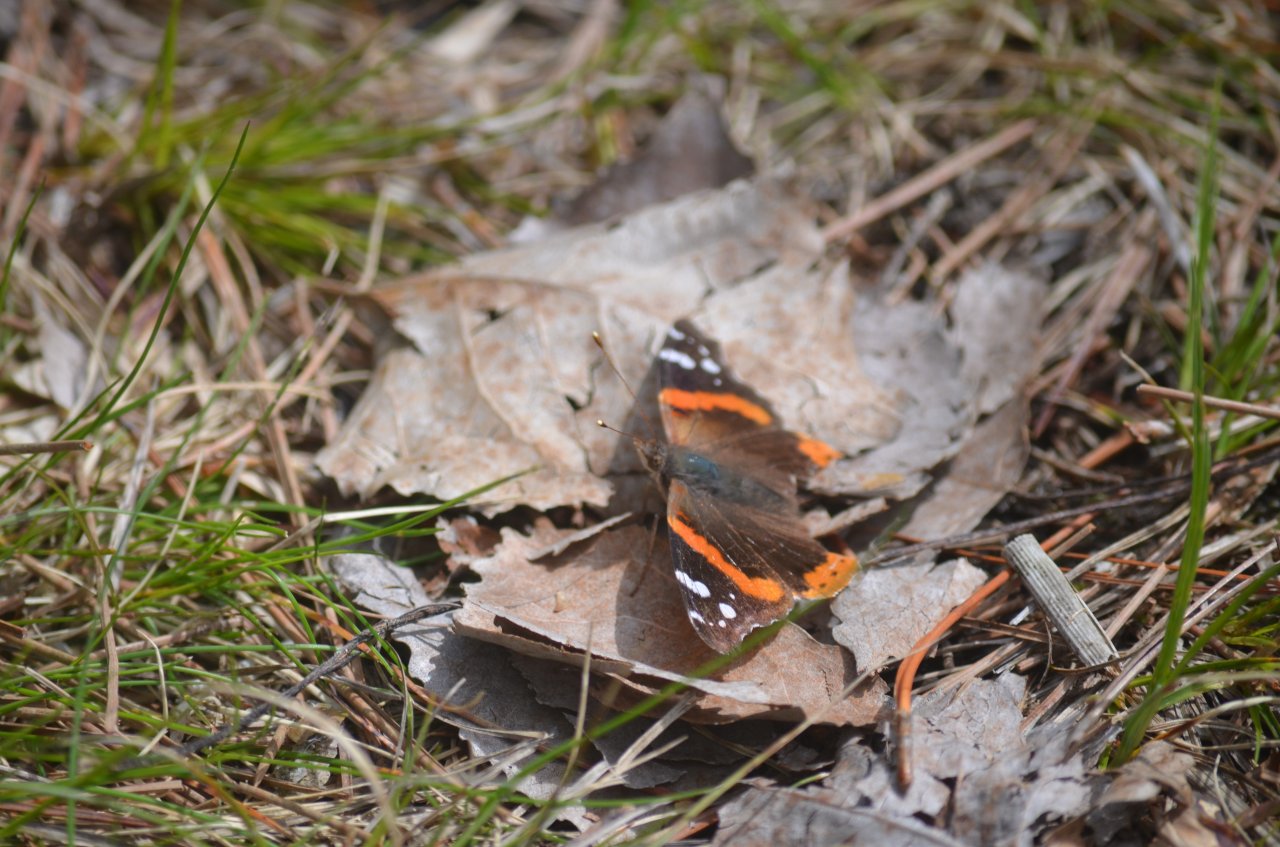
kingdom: Animalia
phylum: Arthropoda
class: Insecta
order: Lepidoptera
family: Nymphalidae
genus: Vanessa
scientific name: Vanessa atalanta
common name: Red Admiral
